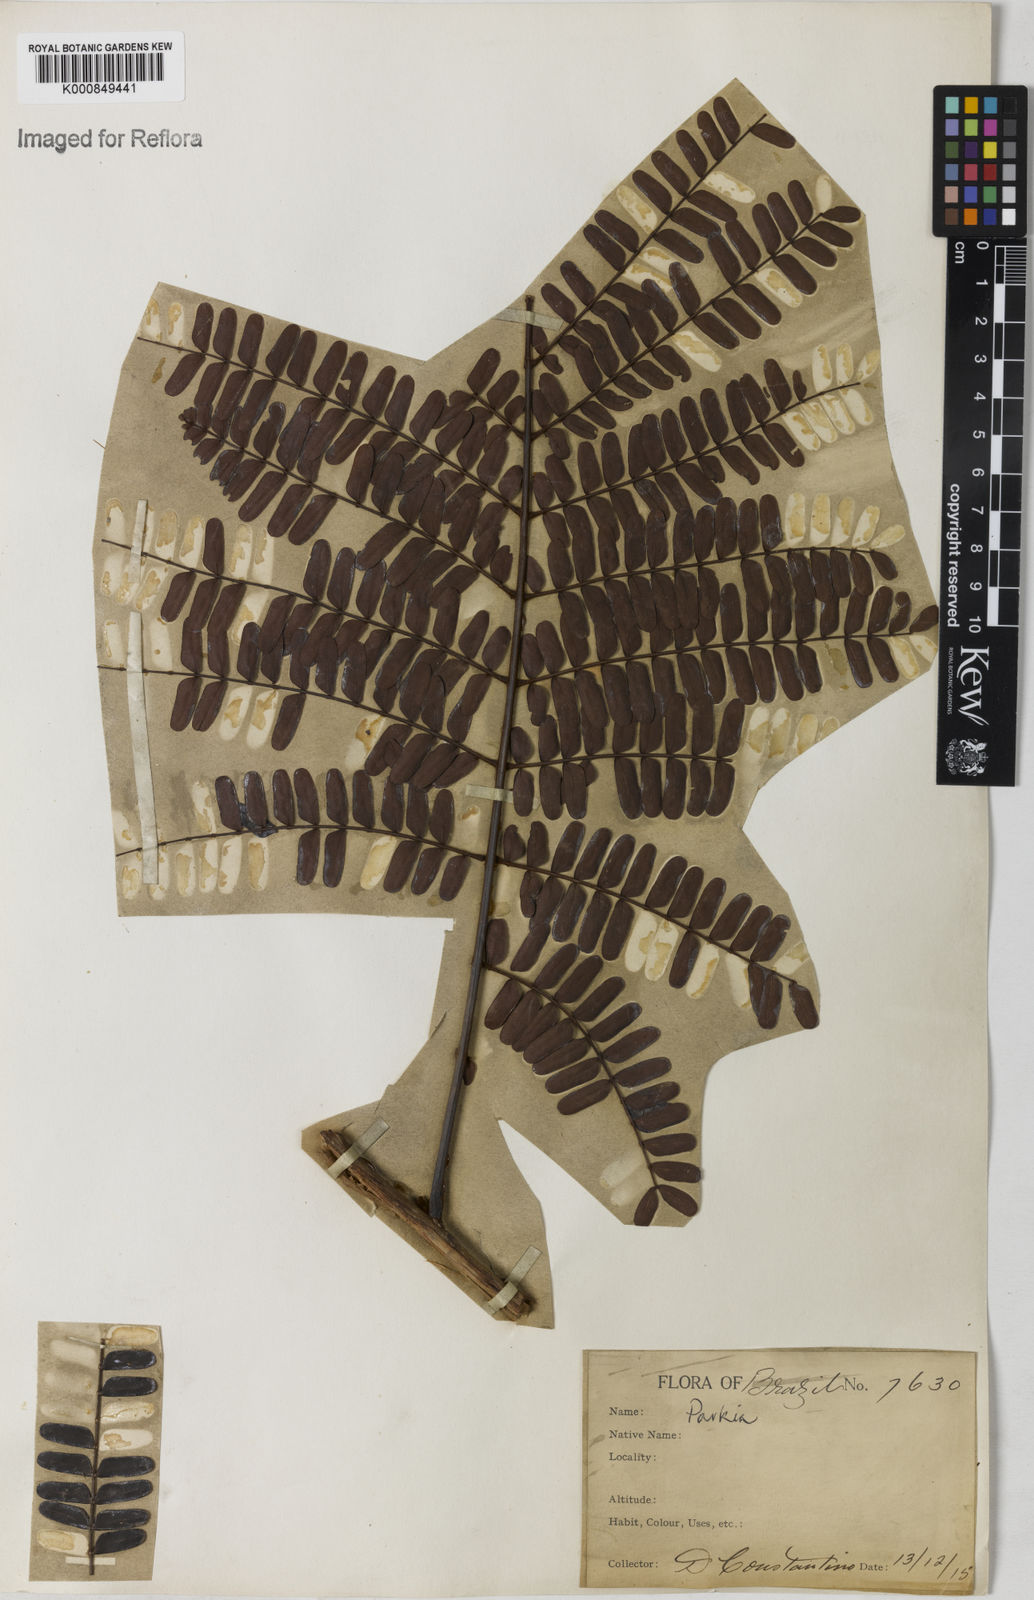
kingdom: Plantae
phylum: Tracheophyta
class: Magnoliopsida
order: Fabales
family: Fabaceae
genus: Parkia
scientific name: Parkia
